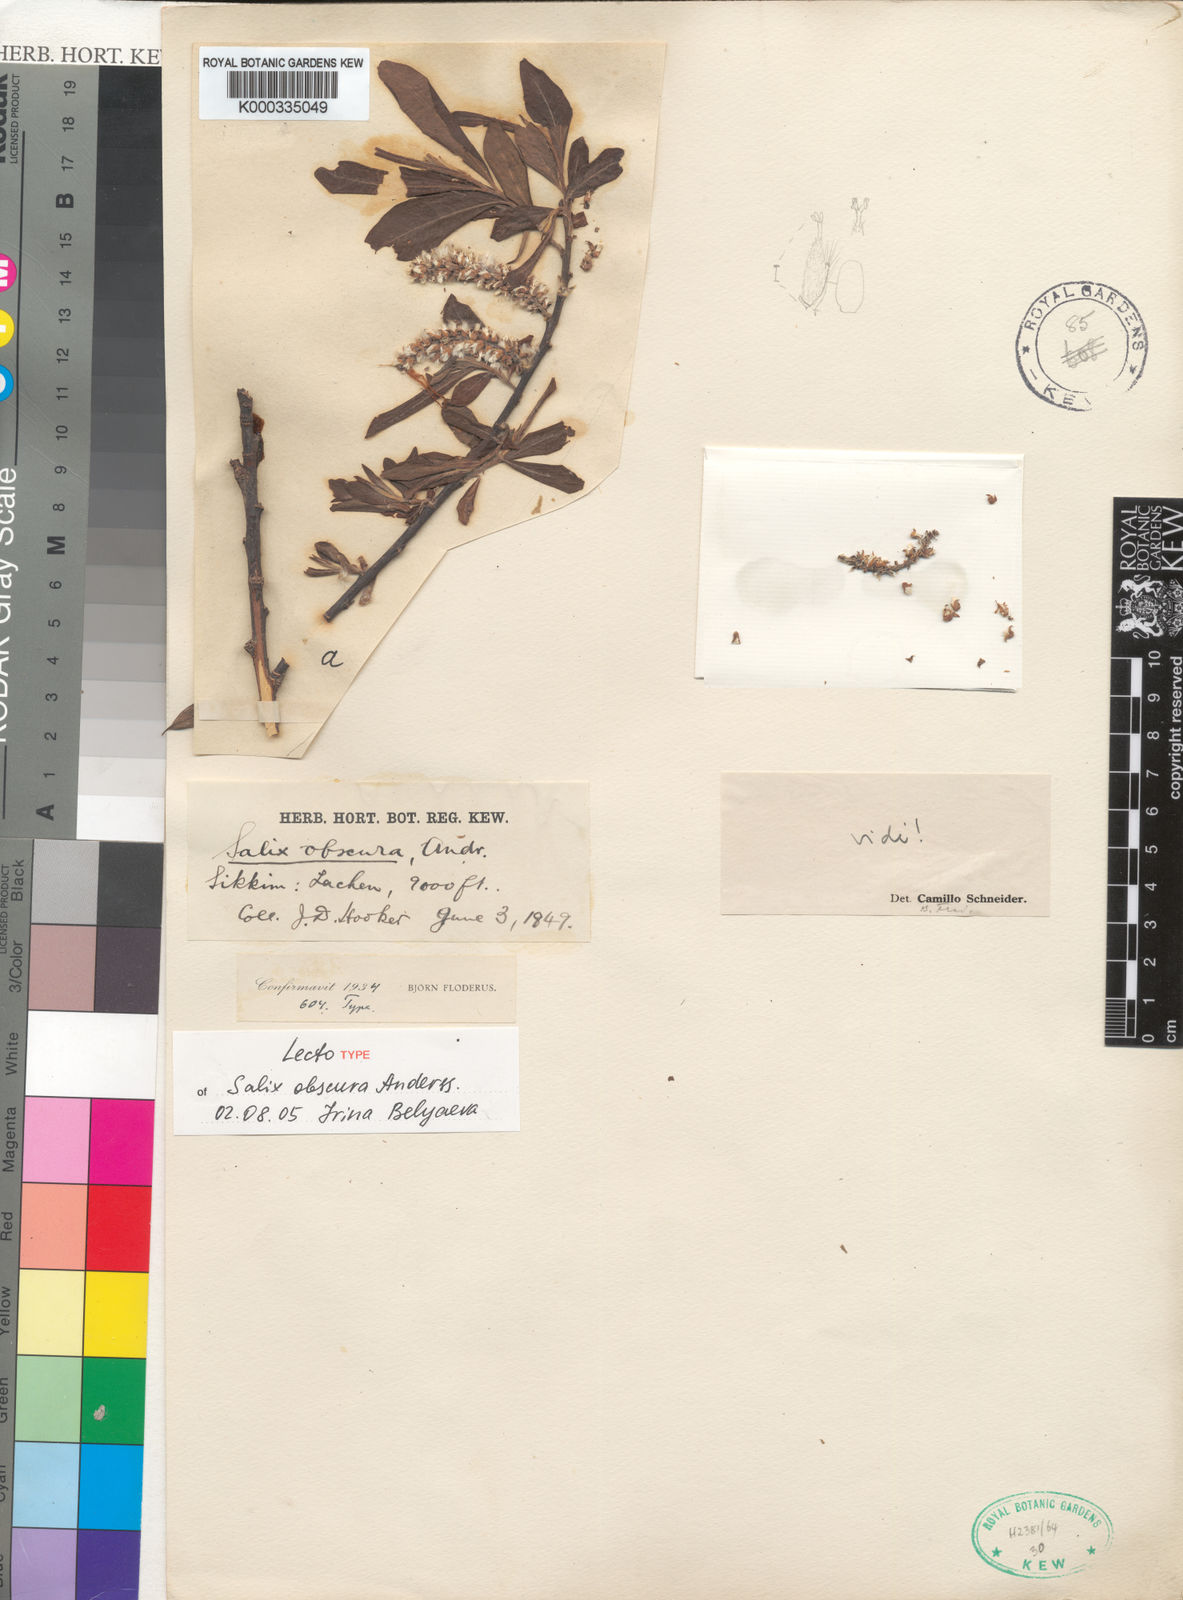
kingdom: Plantae
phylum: Tracheophyta
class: Magnoliopsida
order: Malpighiales
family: Salicaceae
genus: Salix
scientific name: Salix obscura
